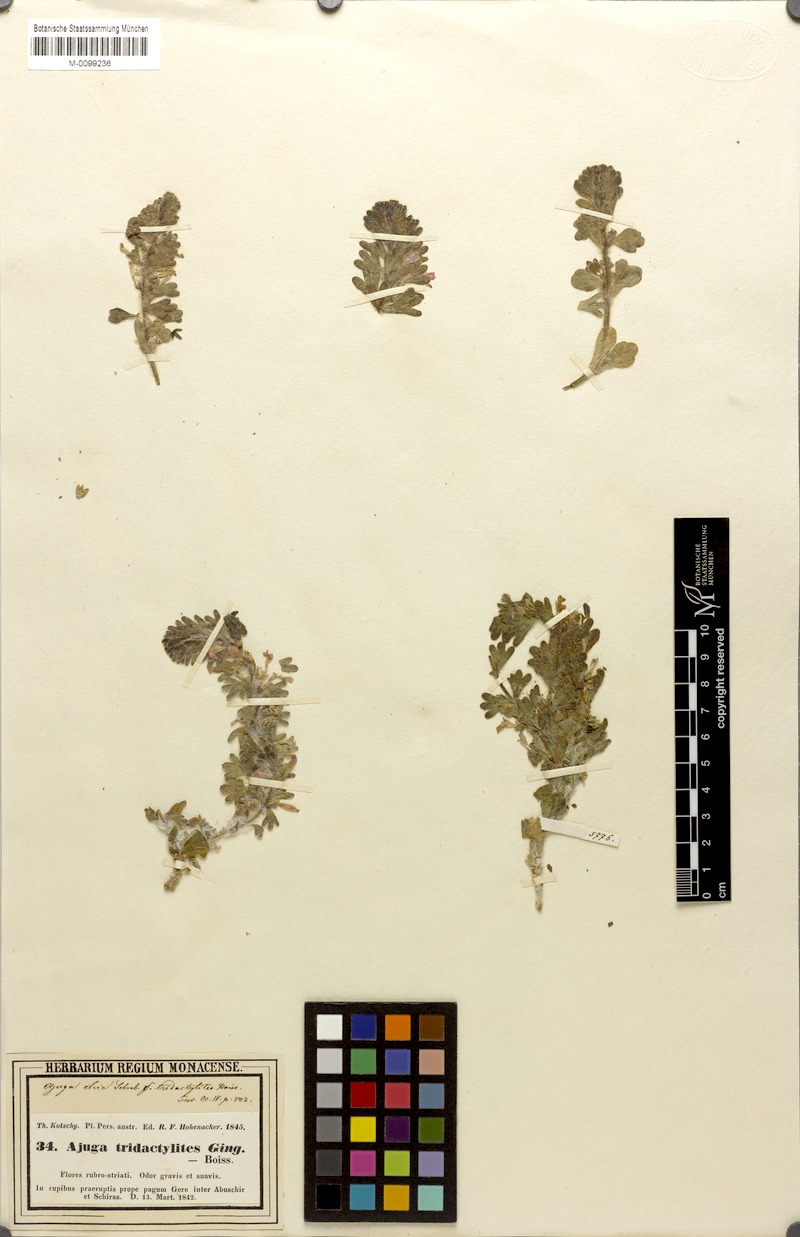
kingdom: Plantae
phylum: Tracheophyta
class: Magnoliopsida
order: Lamiales
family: Lamiaceae
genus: Ajuga
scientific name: Ajuga austroiranica
